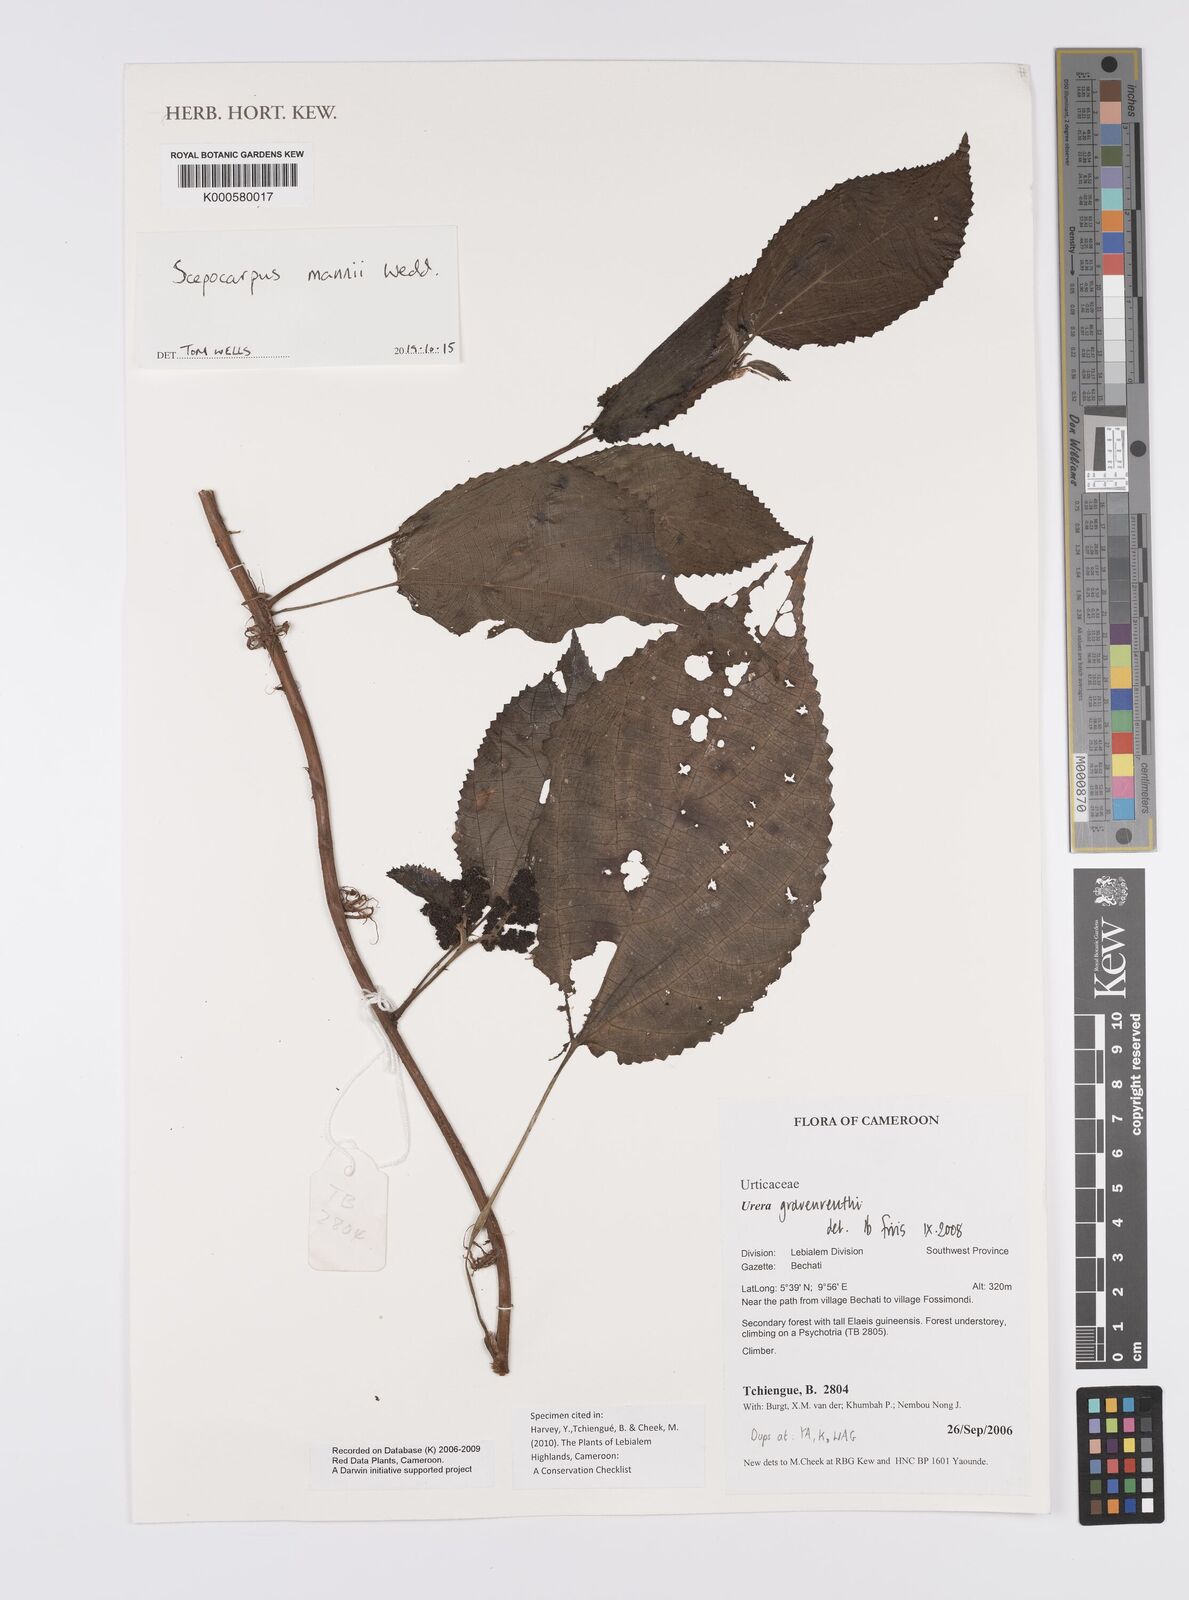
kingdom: Plantae
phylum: Tracheophyta
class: Magnoliopsida
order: Rosales
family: Urticaceae
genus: Scepocarpus
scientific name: Scepocarpus mannii
